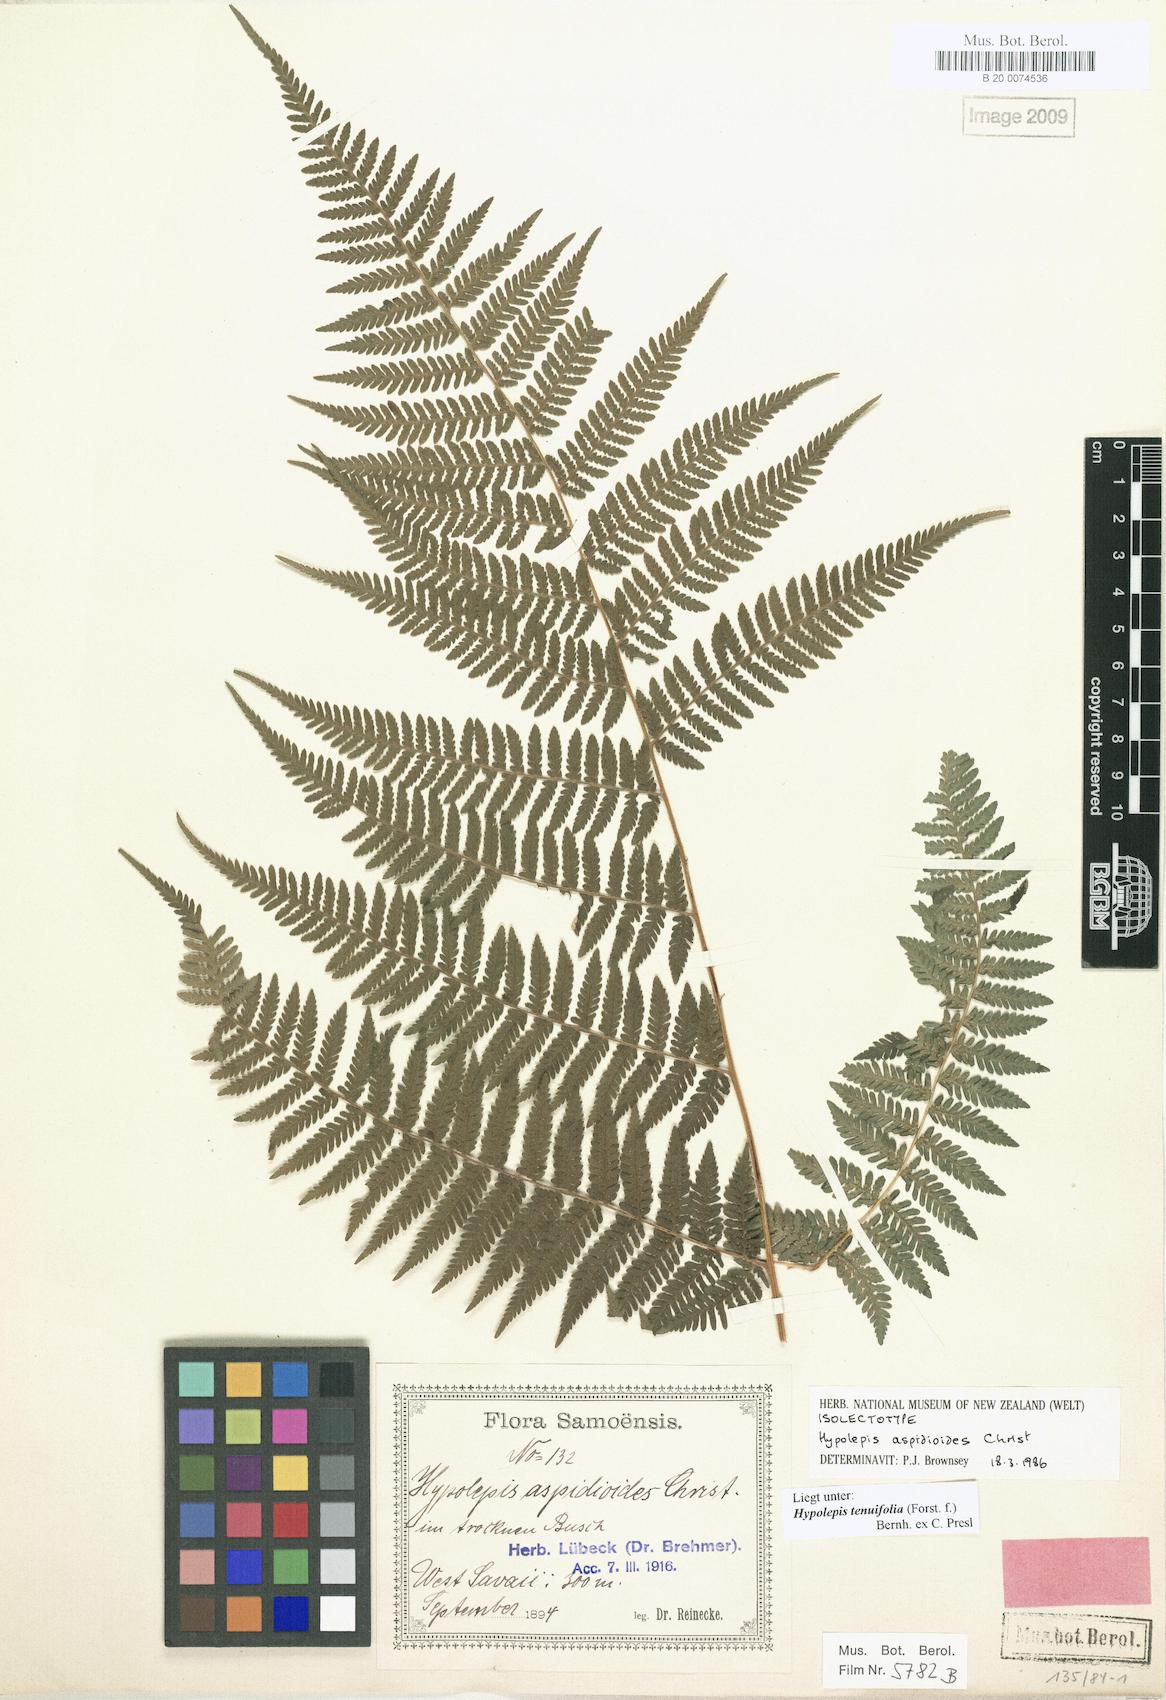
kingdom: Plantae
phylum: Tracheophyta
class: Polypodiopsida
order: Polypodiales
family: Dennstaedtiaceae
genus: Hypolepis
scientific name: Hypolepis tenuifolia
